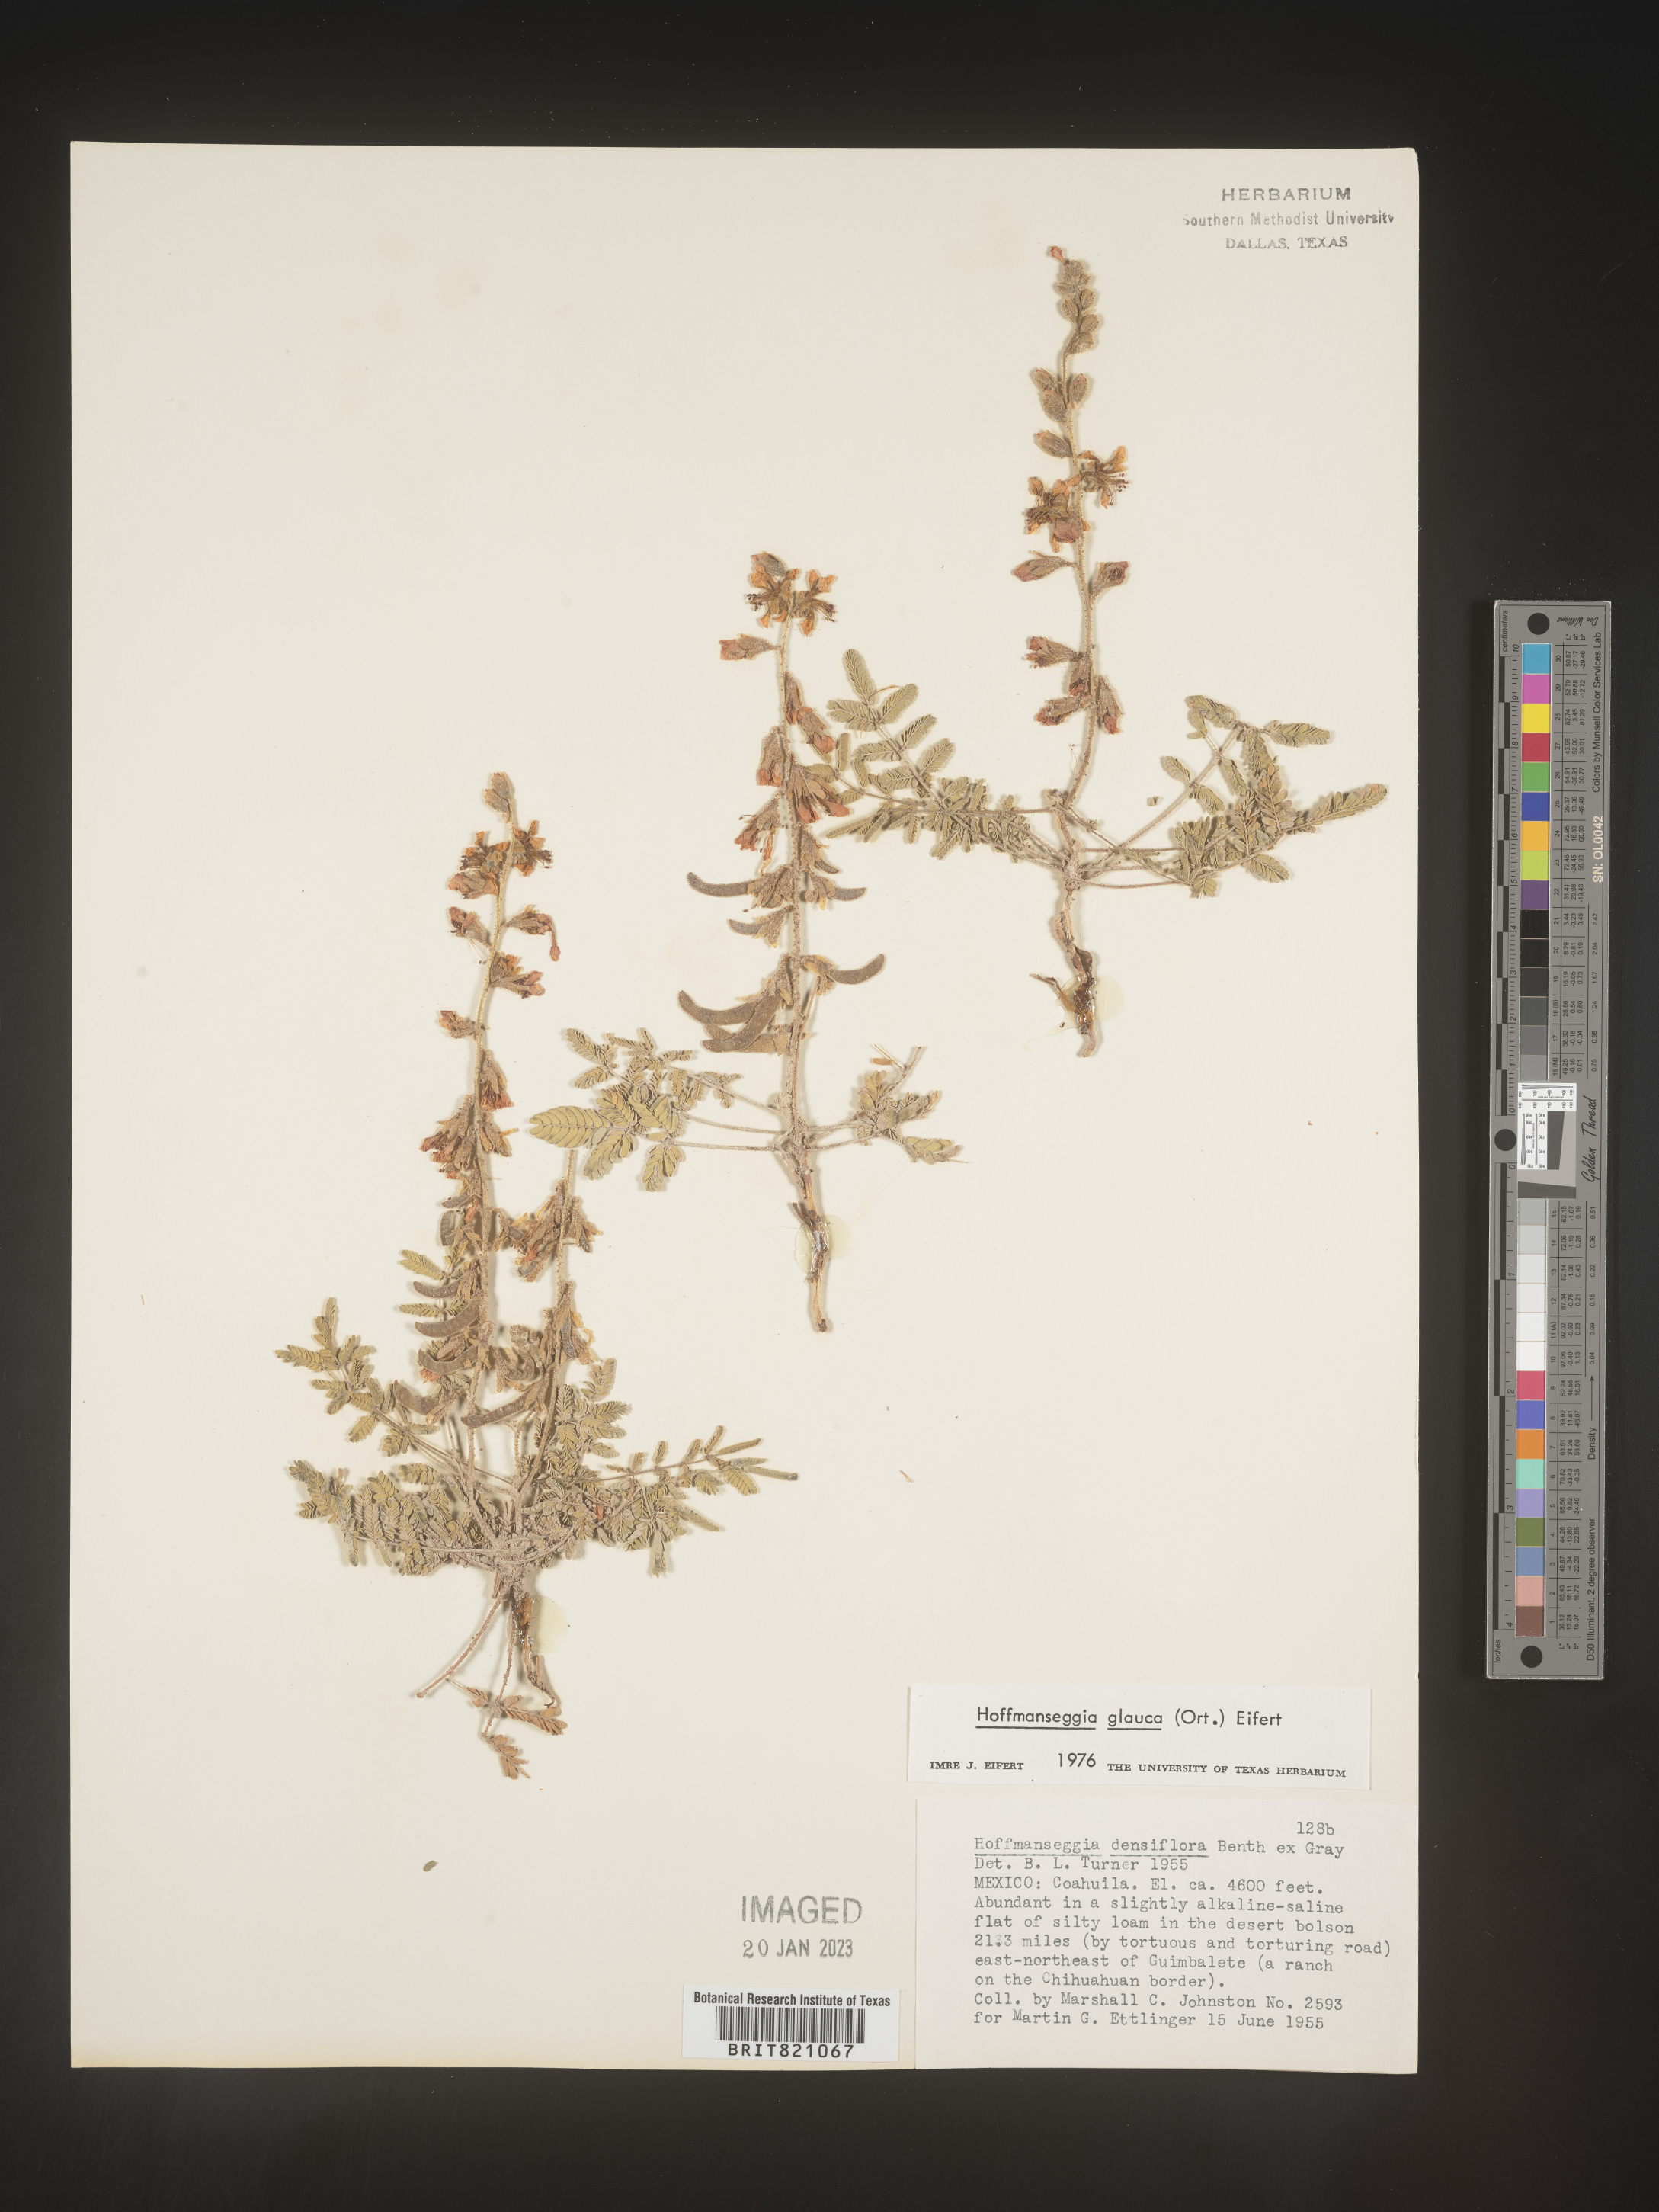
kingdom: Plantae
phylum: Tracheophyta
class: Magnoliopsida
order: Fabales
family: Fabaceae
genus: Hoffmannseggia
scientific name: Hoffmannseggia
